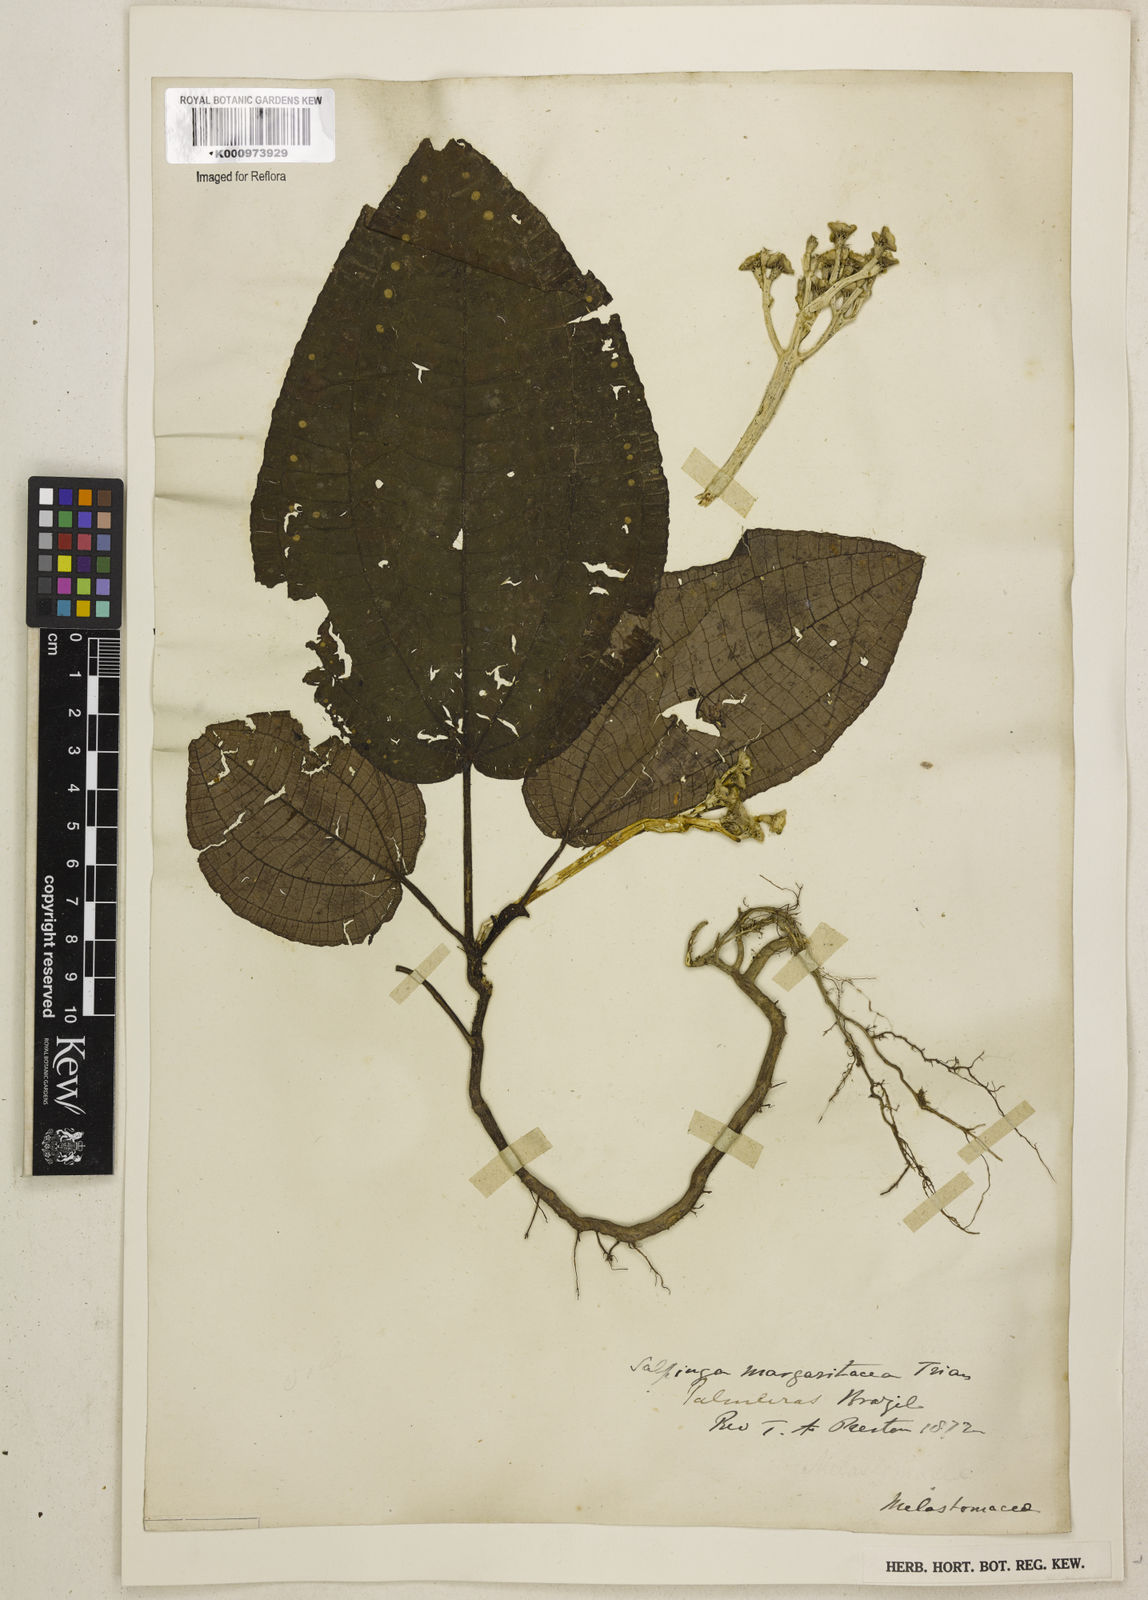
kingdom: Plantae
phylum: Tracheophyta
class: Magnoliopsida
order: Myrtales
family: Melastomataceae
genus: Salpinga
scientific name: Salpinga margaritacea
